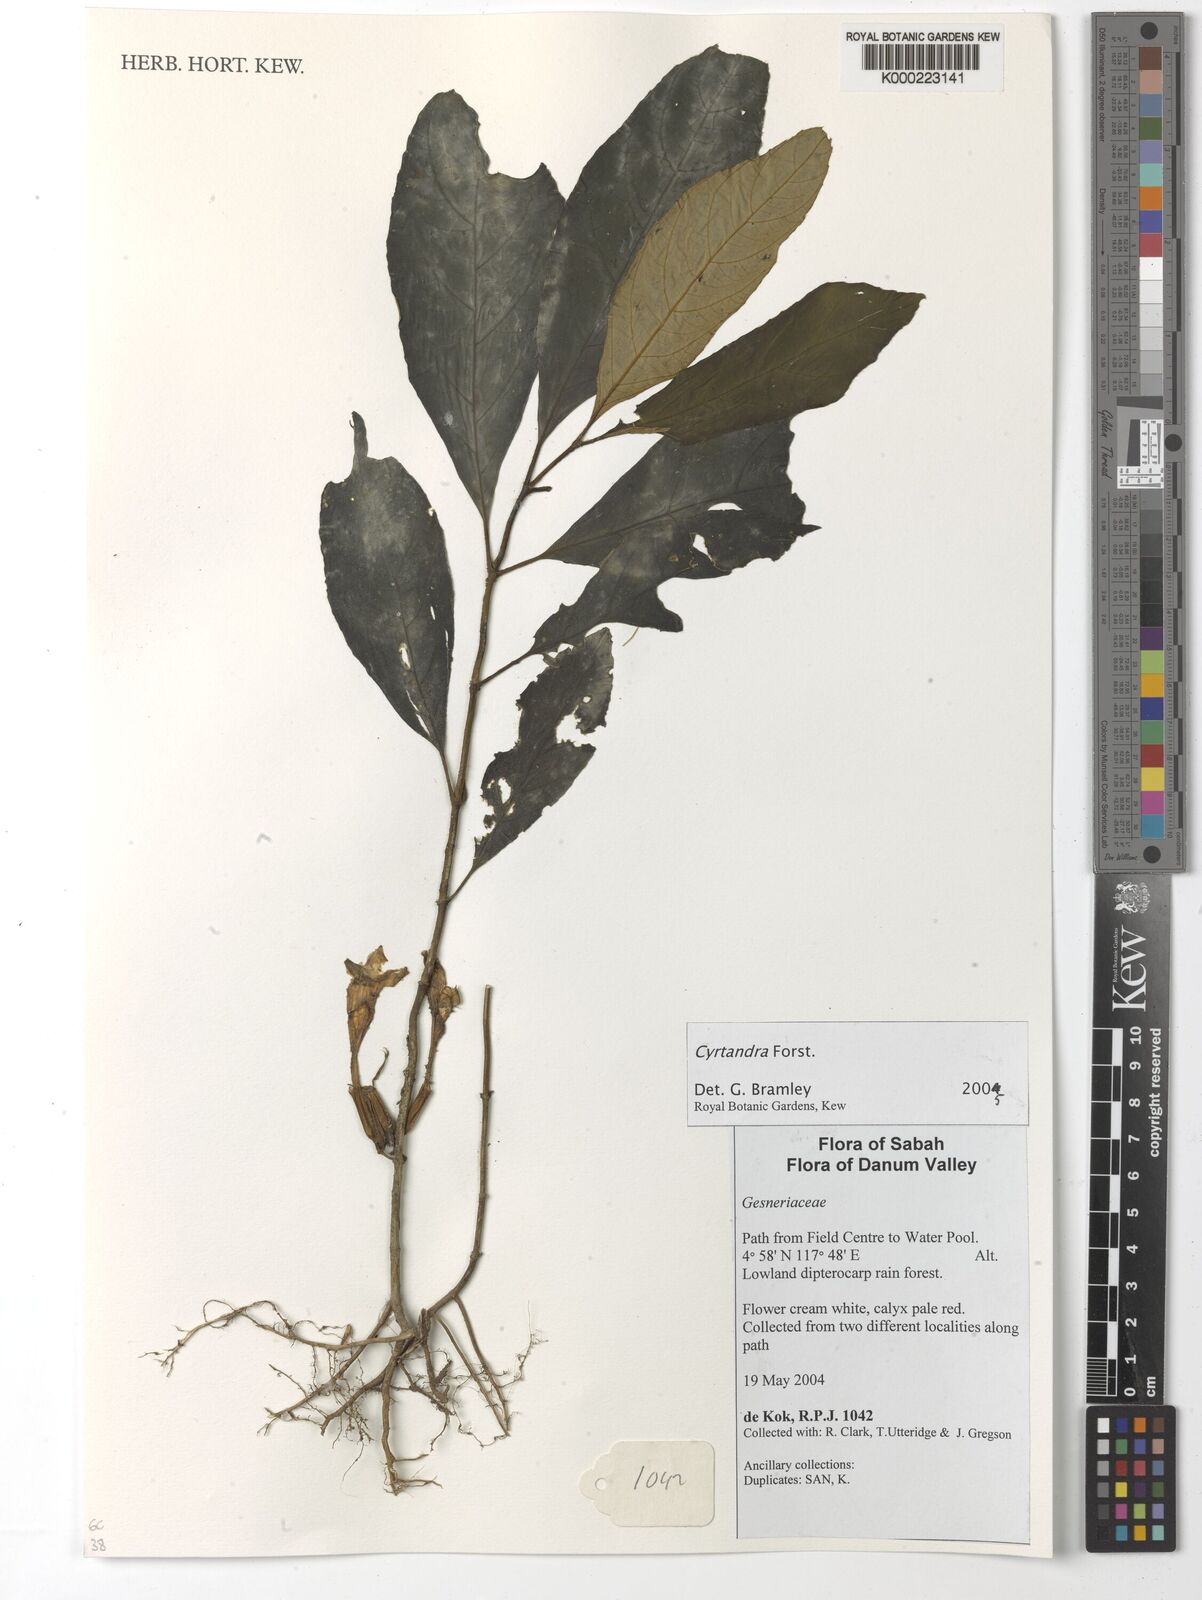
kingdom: Plantae
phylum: Tracheophyta
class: Magnoliopsida
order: Lamiales
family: Gesneriaceae
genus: Cyrtandra
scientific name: Cyrtandra
